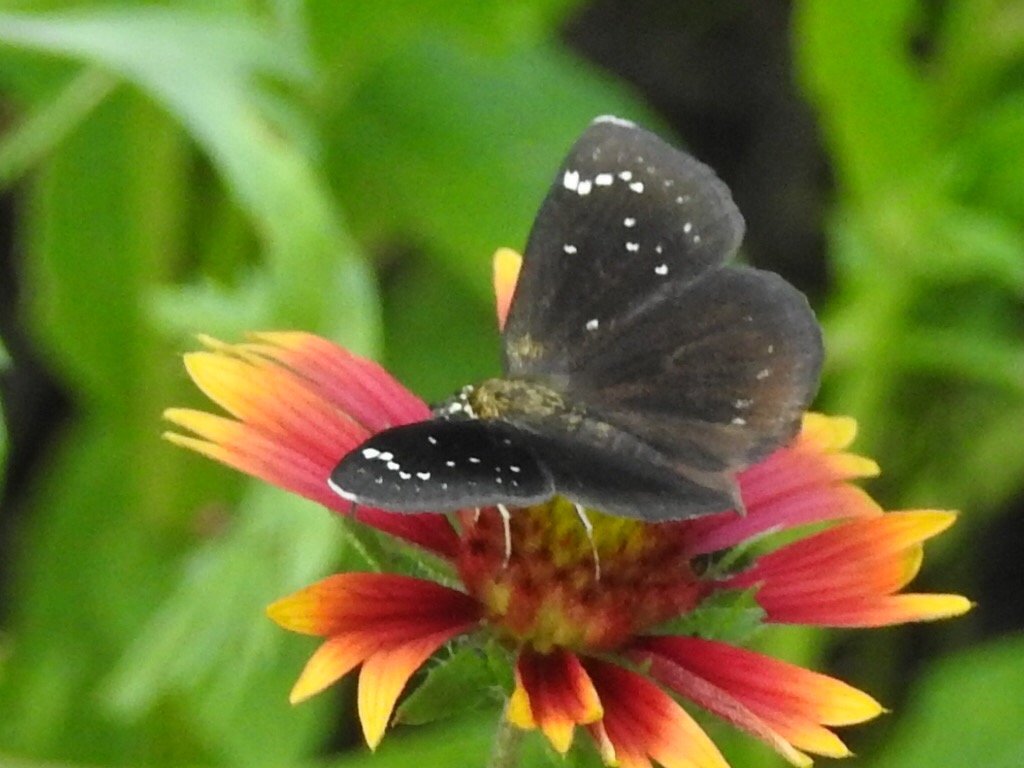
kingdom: Animalia
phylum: Arthropoda
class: Insecta
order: Lepidoptera
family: Hesperiidae
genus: Pholisora
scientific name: Pholisora catullus
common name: Common Sootywing
